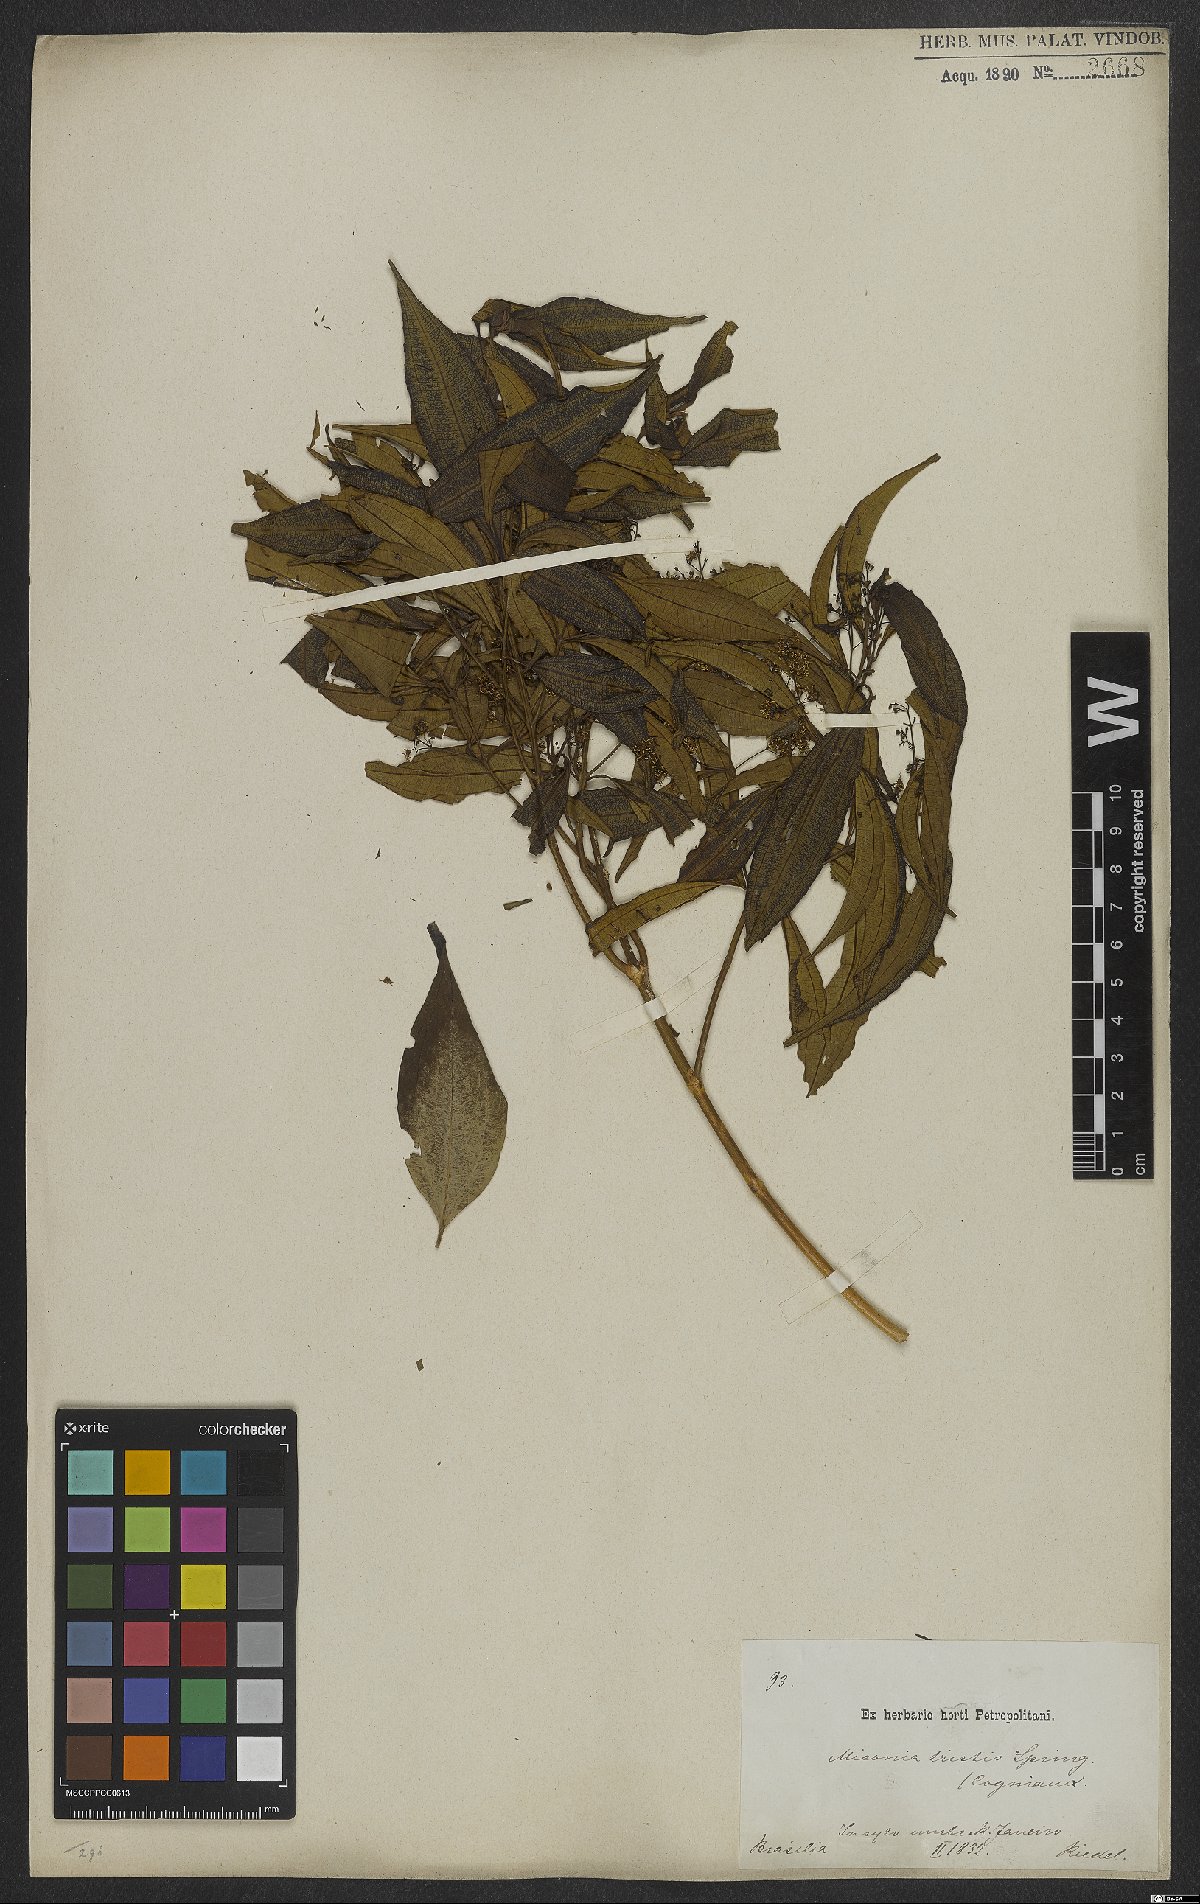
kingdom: Plantae
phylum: Tracheophyta
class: Magnoliopsida
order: Myrtales
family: Melastomataceae
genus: Miconia
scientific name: Miconia tristis
